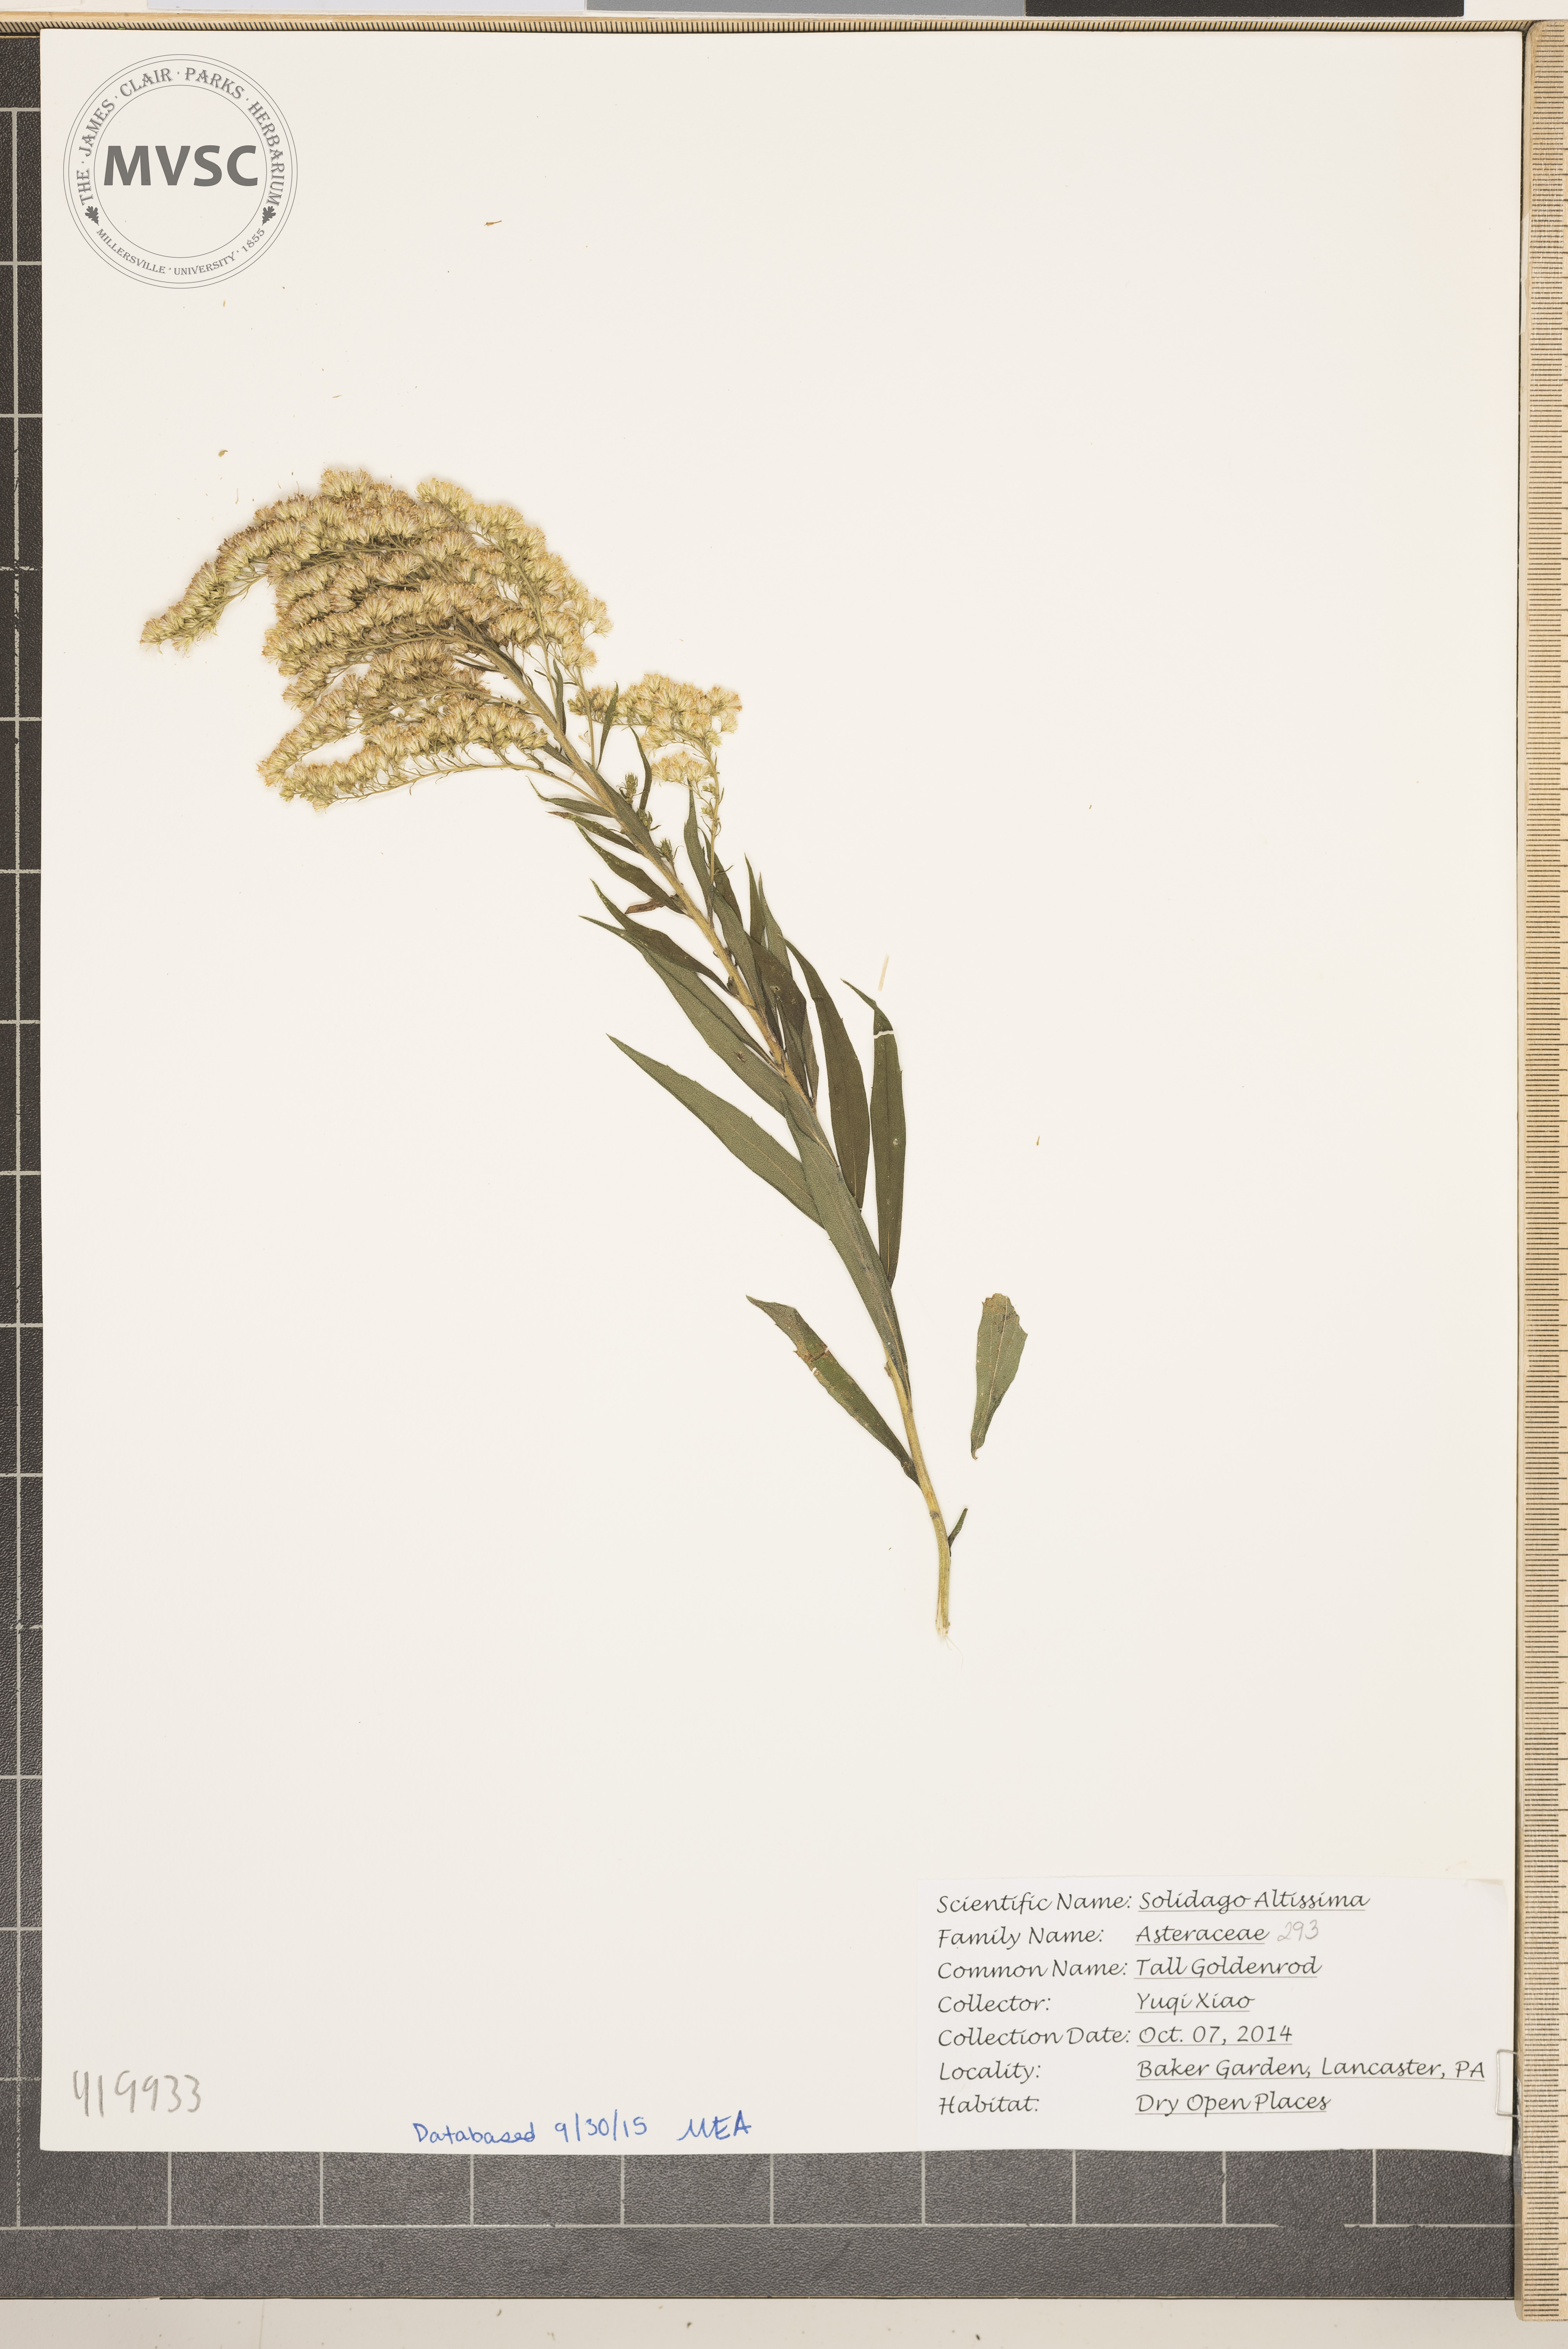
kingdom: Plantae
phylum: Tracheophyta
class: Magnoliopsida
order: Asterales
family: Asteraceae
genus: Solidago
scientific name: Solidago altissima
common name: Tall Goldenrod
